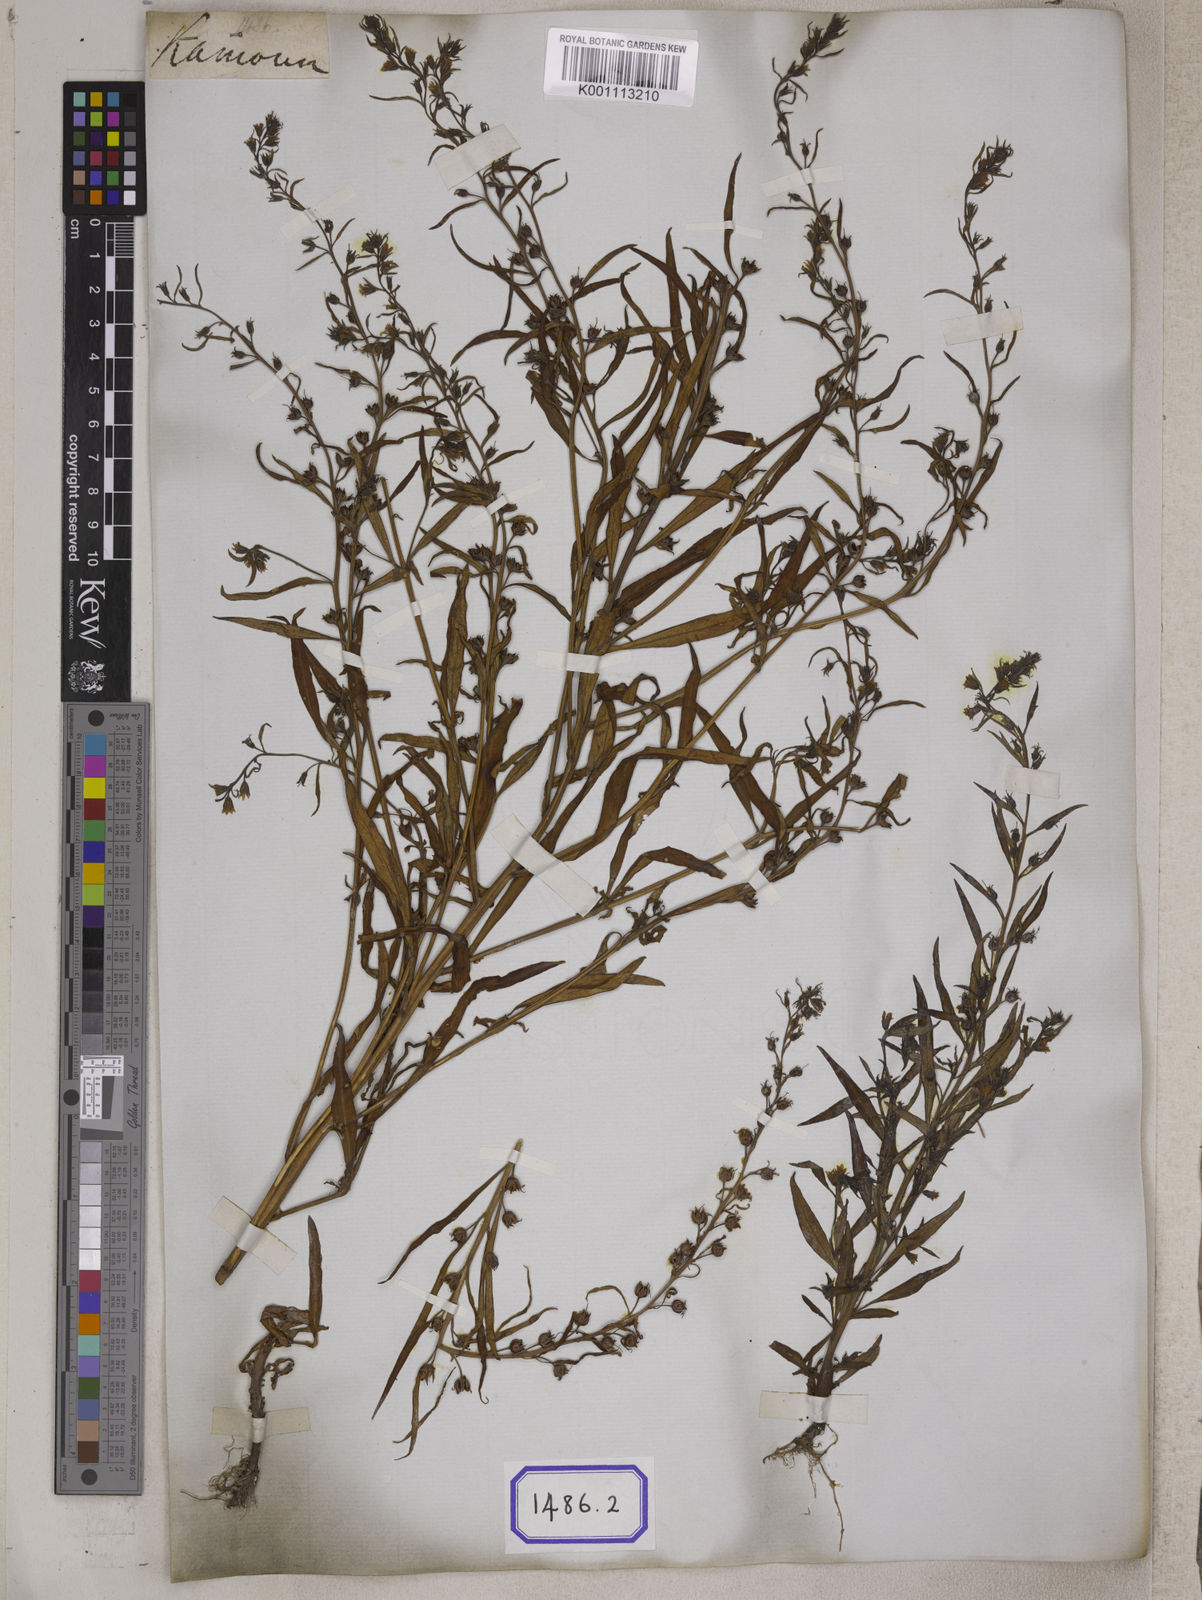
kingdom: Plantae
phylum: Tracheophyta
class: Magnoliopsida
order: Ericales
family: Primulaceae
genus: Lysimachia
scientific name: Lysimachia pyramidalis
